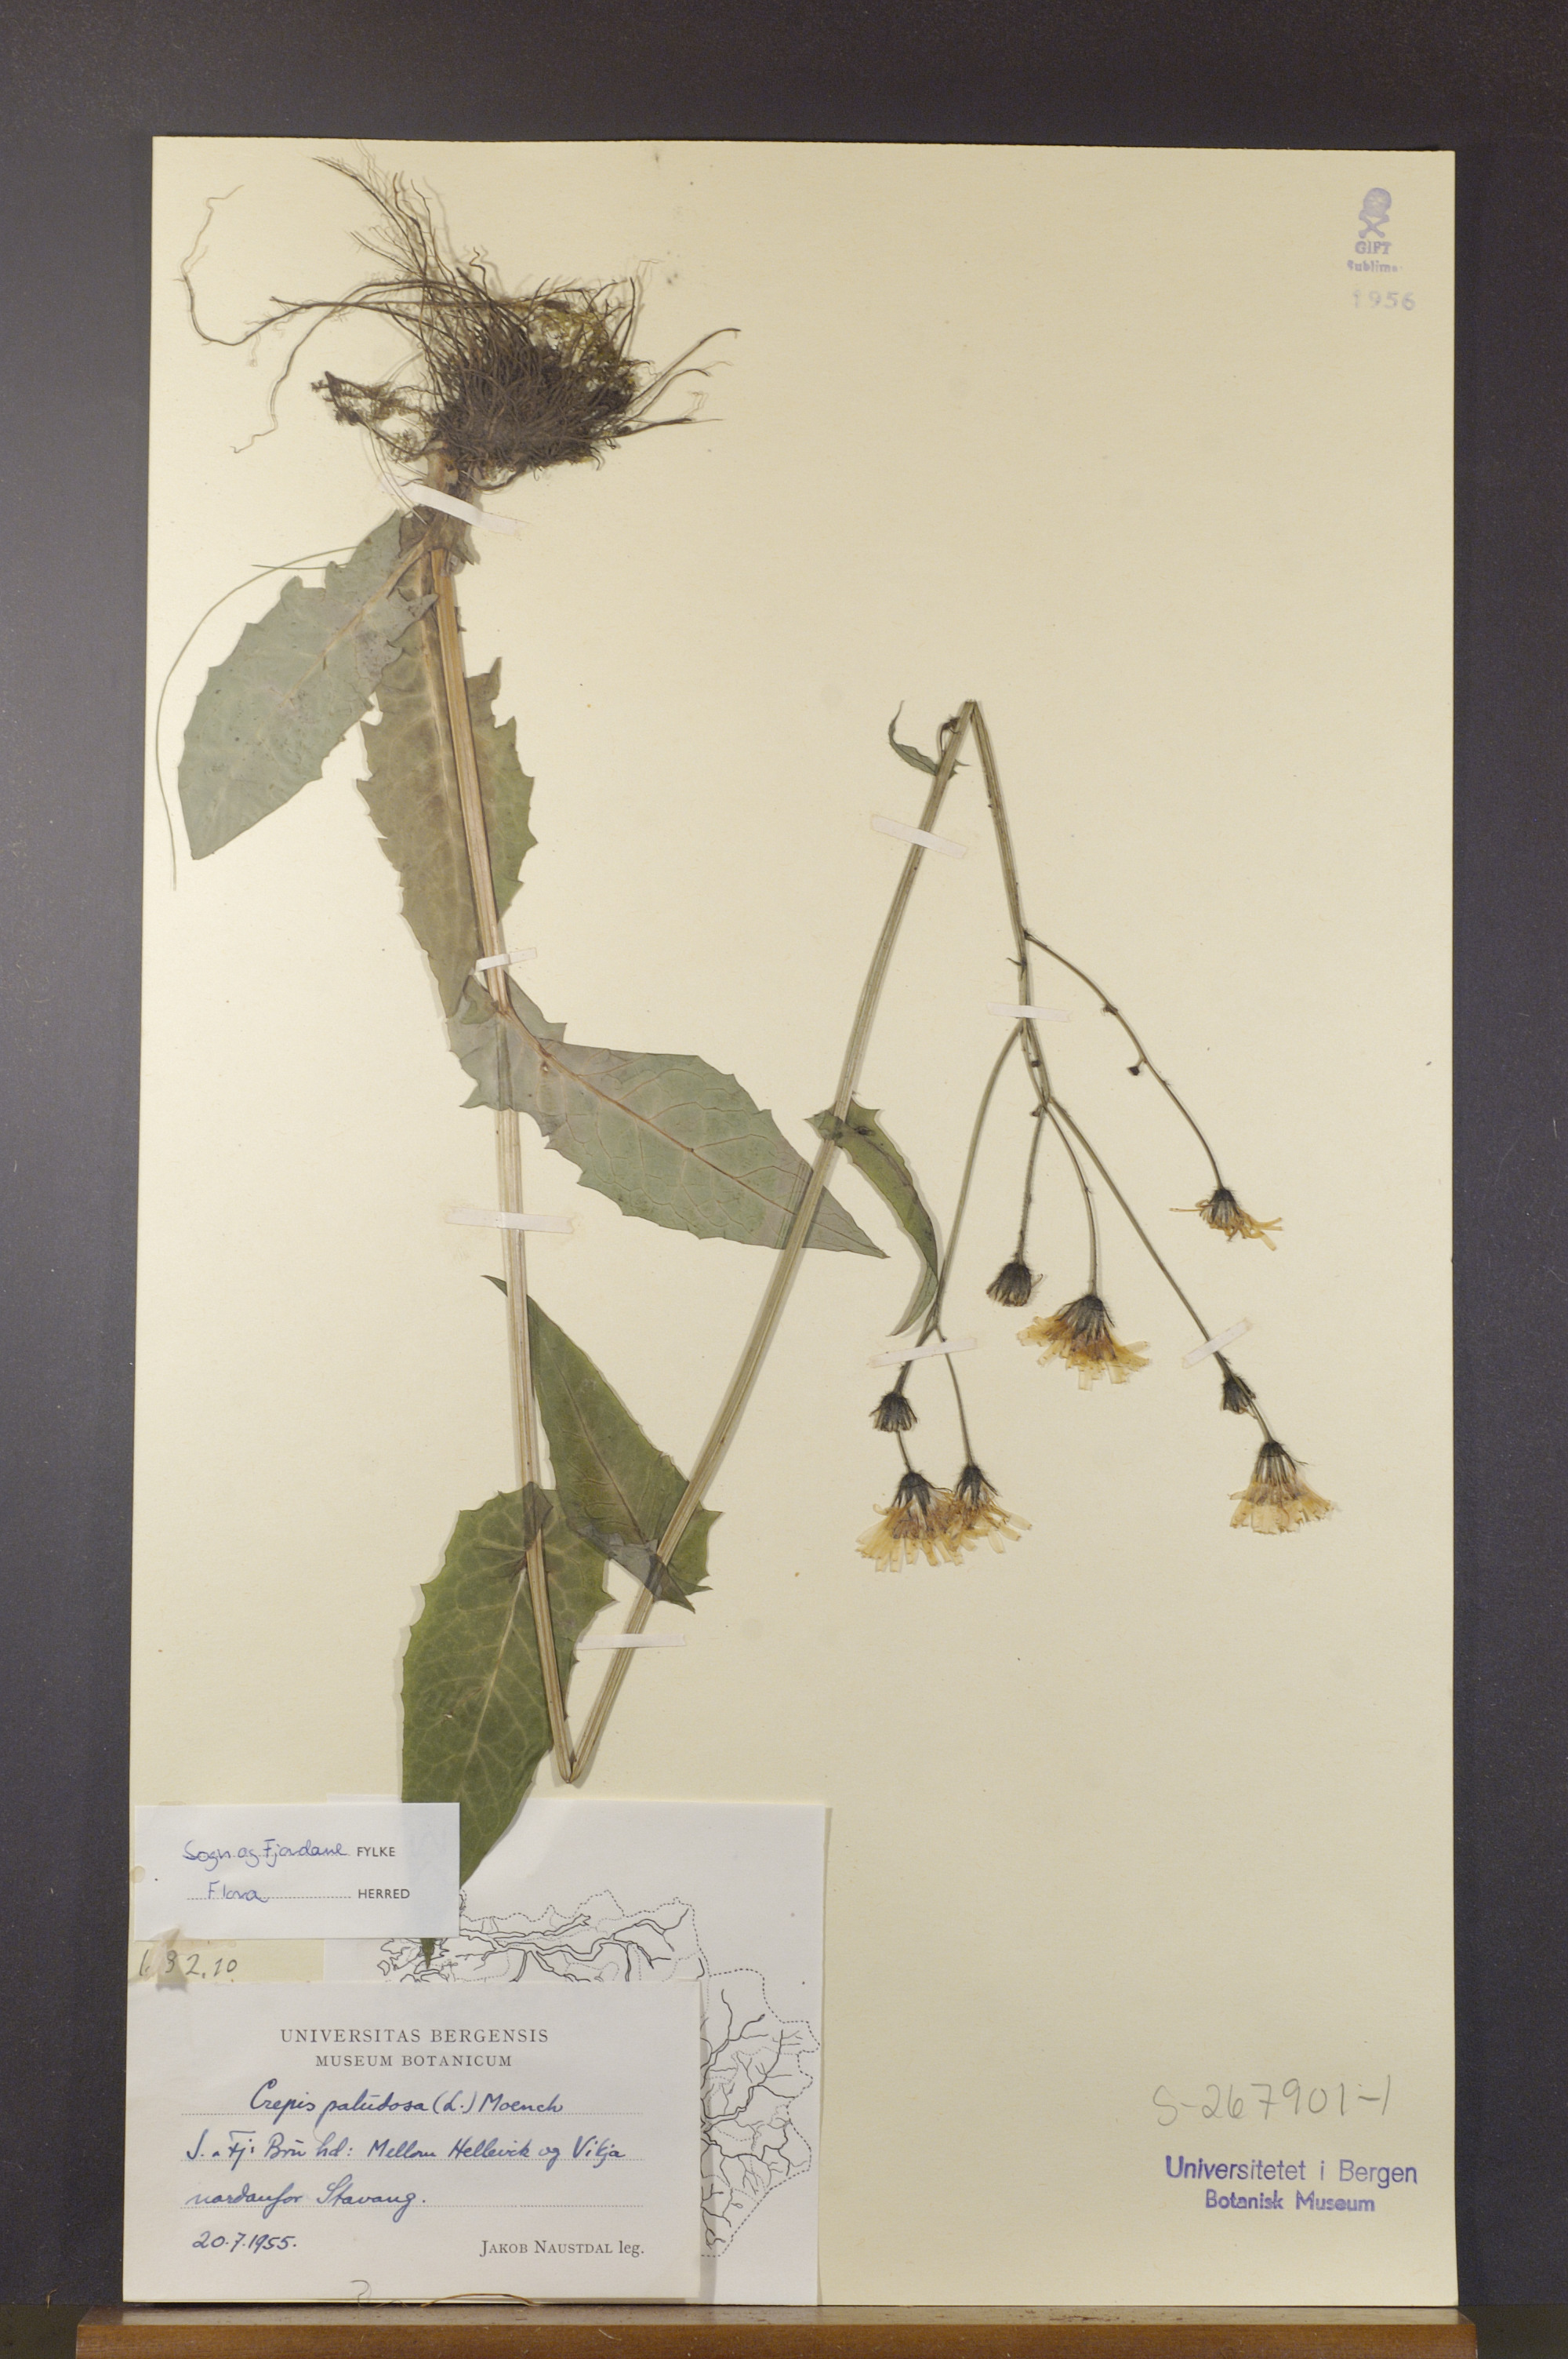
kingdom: Plantae
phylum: Tracheophyta
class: Magnoliopsida
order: Asterales
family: Asteraceae
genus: Crepis
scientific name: Crepis paludosa
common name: Marsh hawk's-beard
